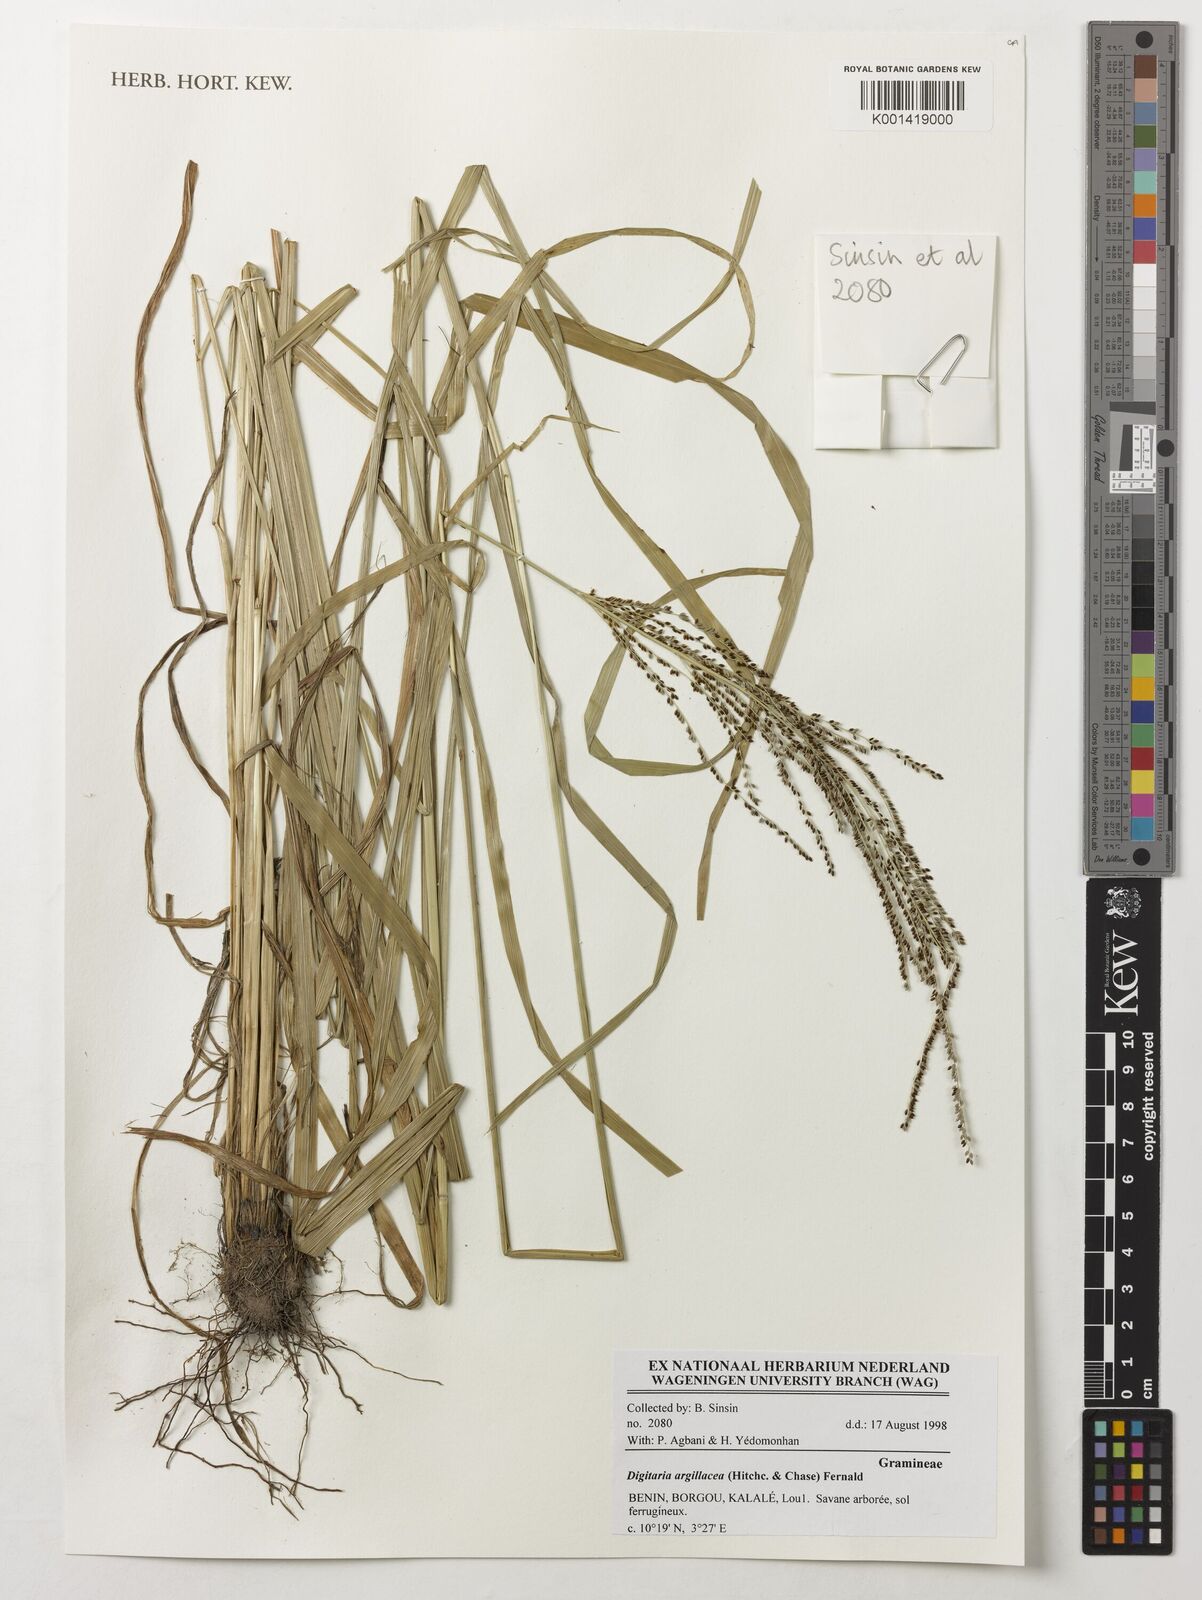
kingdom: Plantae
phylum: Tracheophyta
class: Liliopsida
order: Poales
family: Poaceae
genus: Digitaria
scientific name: Digitaria argillacea
